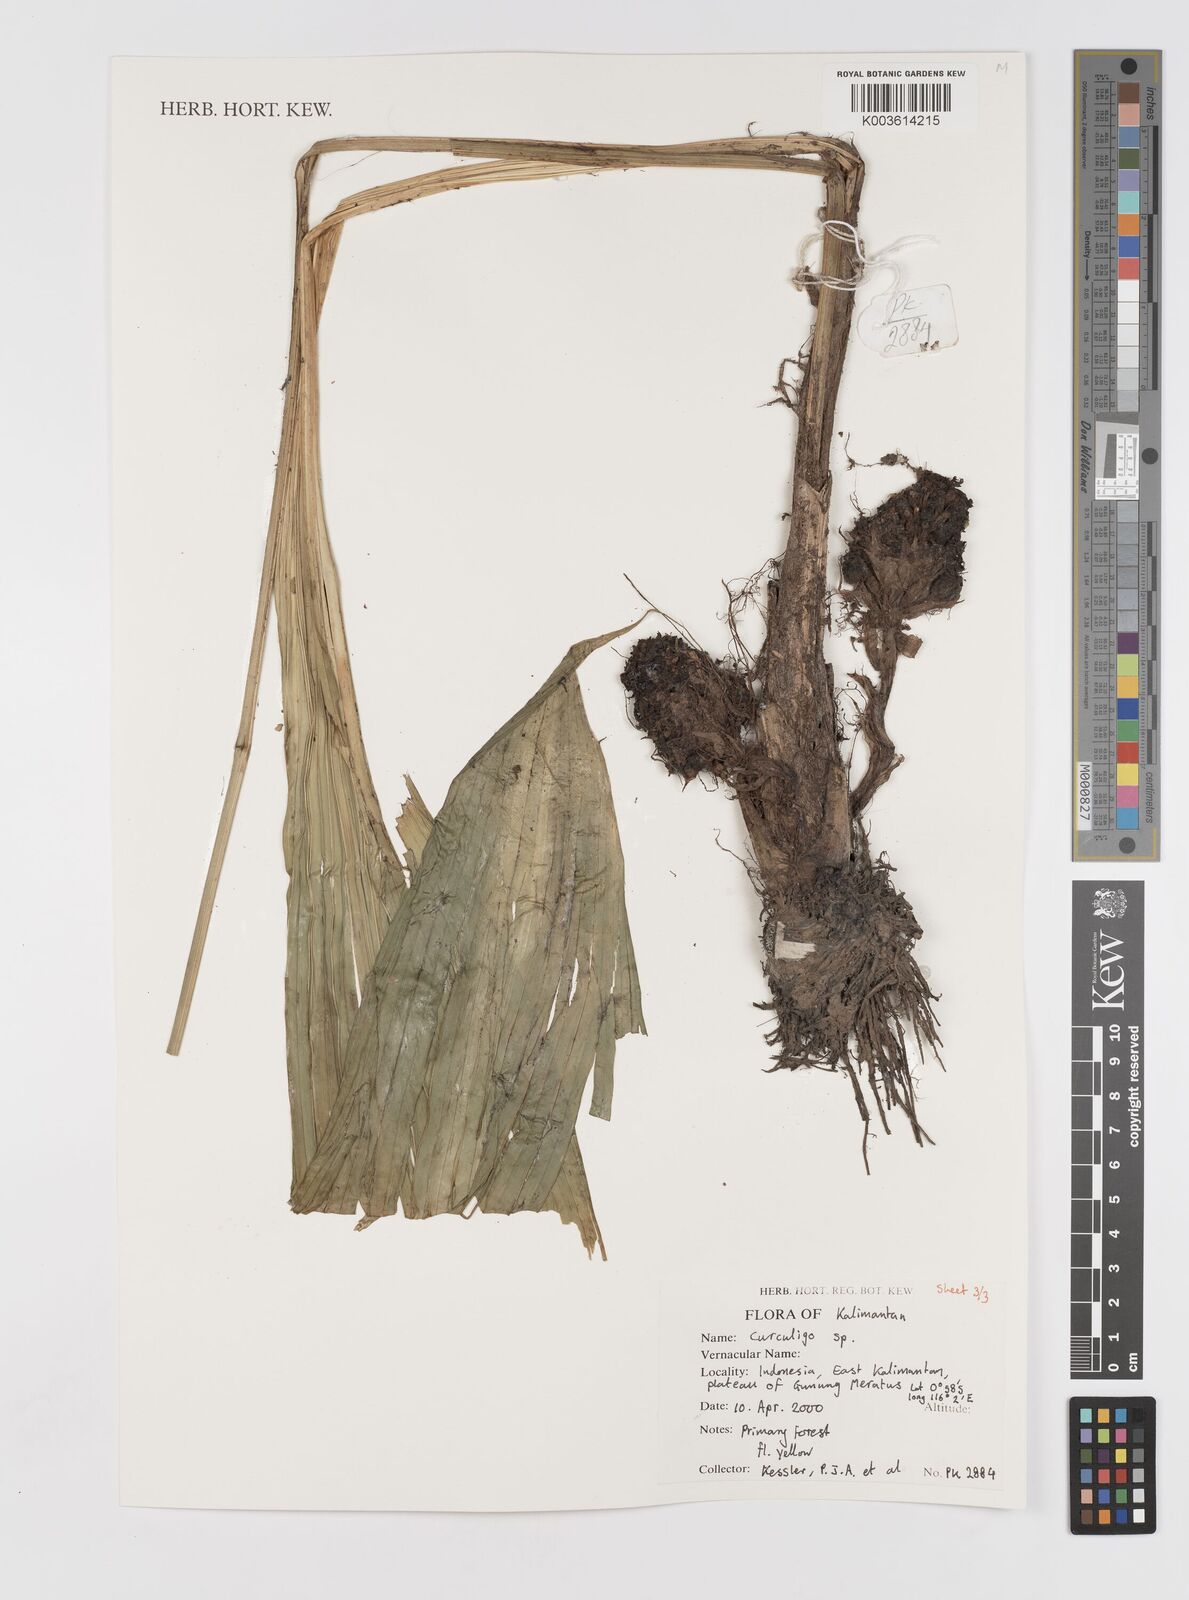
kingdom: Plantae
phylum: Tracheophyta
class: Liliopsida
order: Asparagales
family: Hypoxidaceae
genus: Curculigo
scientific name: Curculigo
